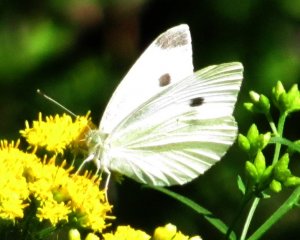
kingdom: Animalia
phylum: Arthropoda
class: Insecta
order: Lepidoptera
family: Pieridae
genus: Pieris
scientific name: Pieris rapae
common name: Cabbage White
